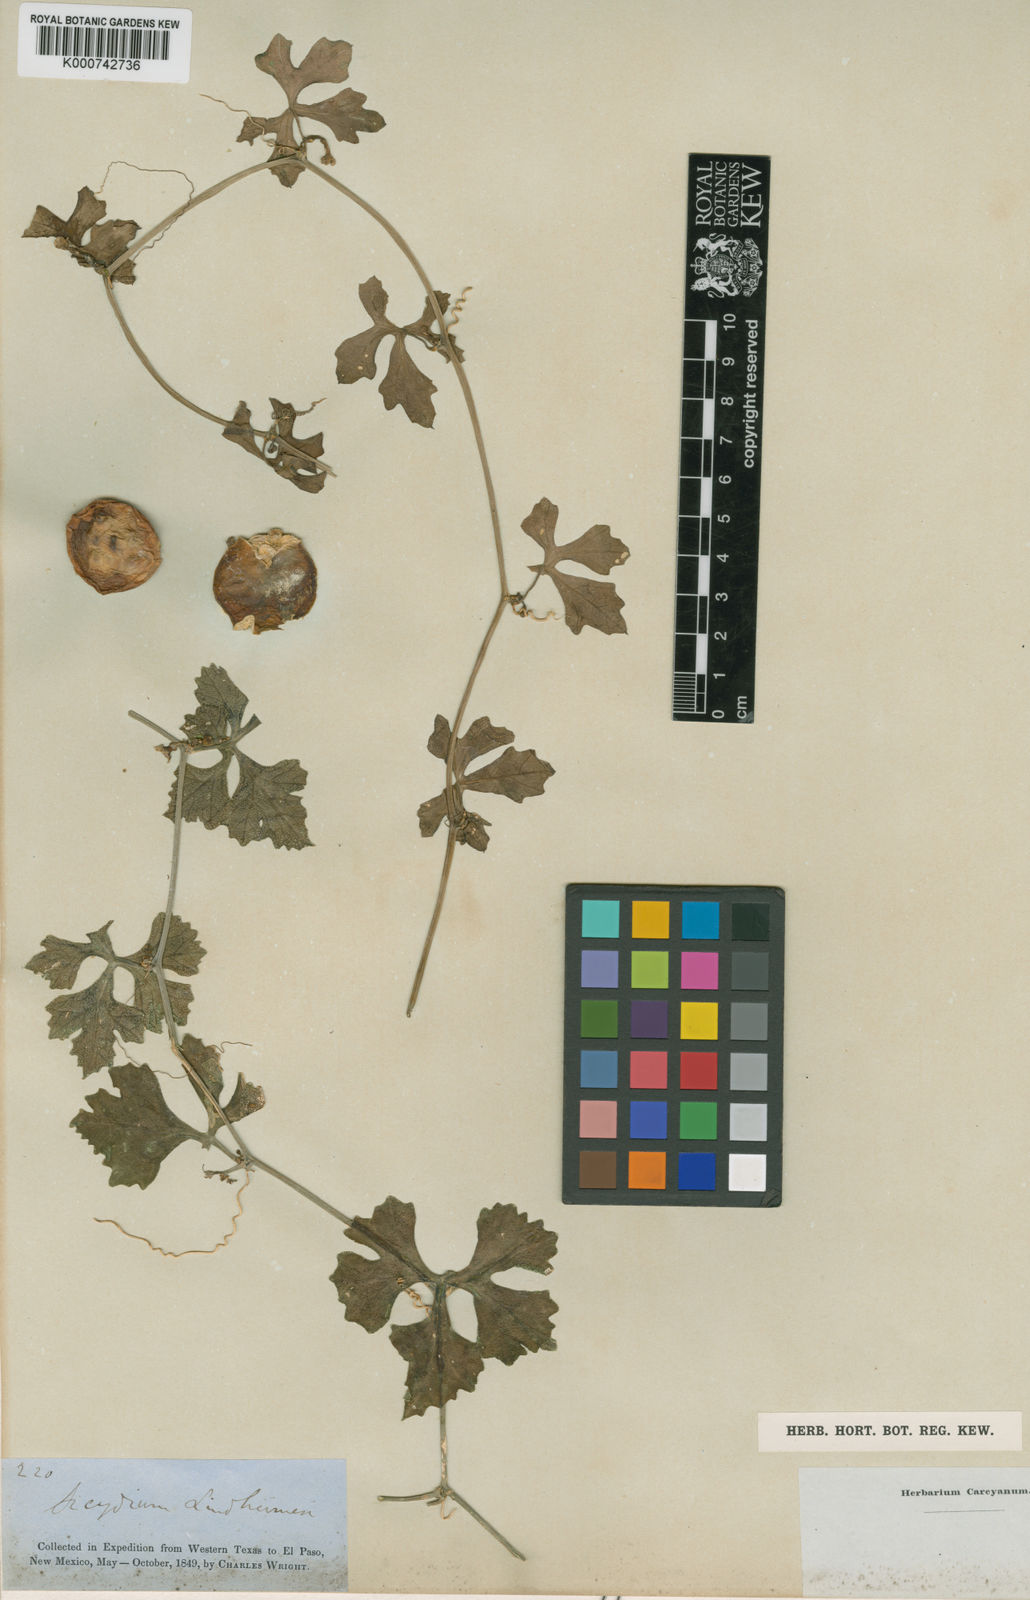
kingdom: Plantae
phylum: Tracheophyta
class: Magnoliopsida
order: Cucurbitales
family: Cucurbitaceae
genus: Ibervillea
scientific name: Ibervillea lindheimeri
